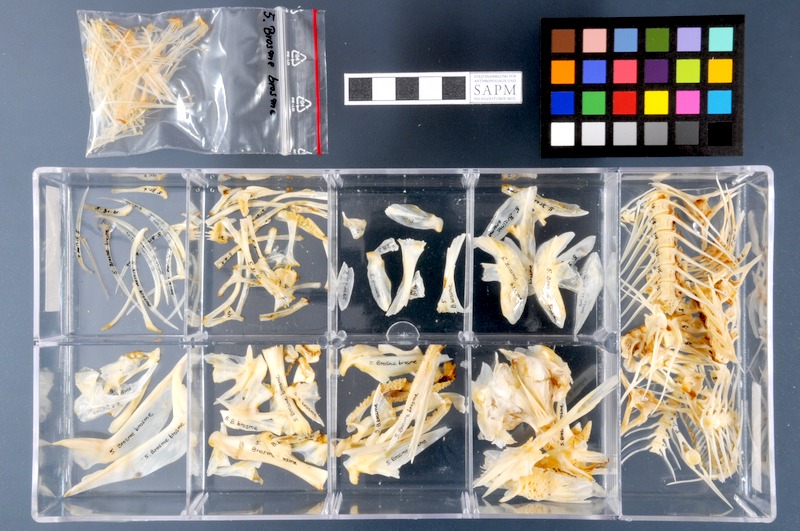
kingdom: Animalia
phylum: Chordata
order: Gadiformes
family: Lotidae
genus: Brosme
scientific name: Brosme brosme
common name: Cusk
